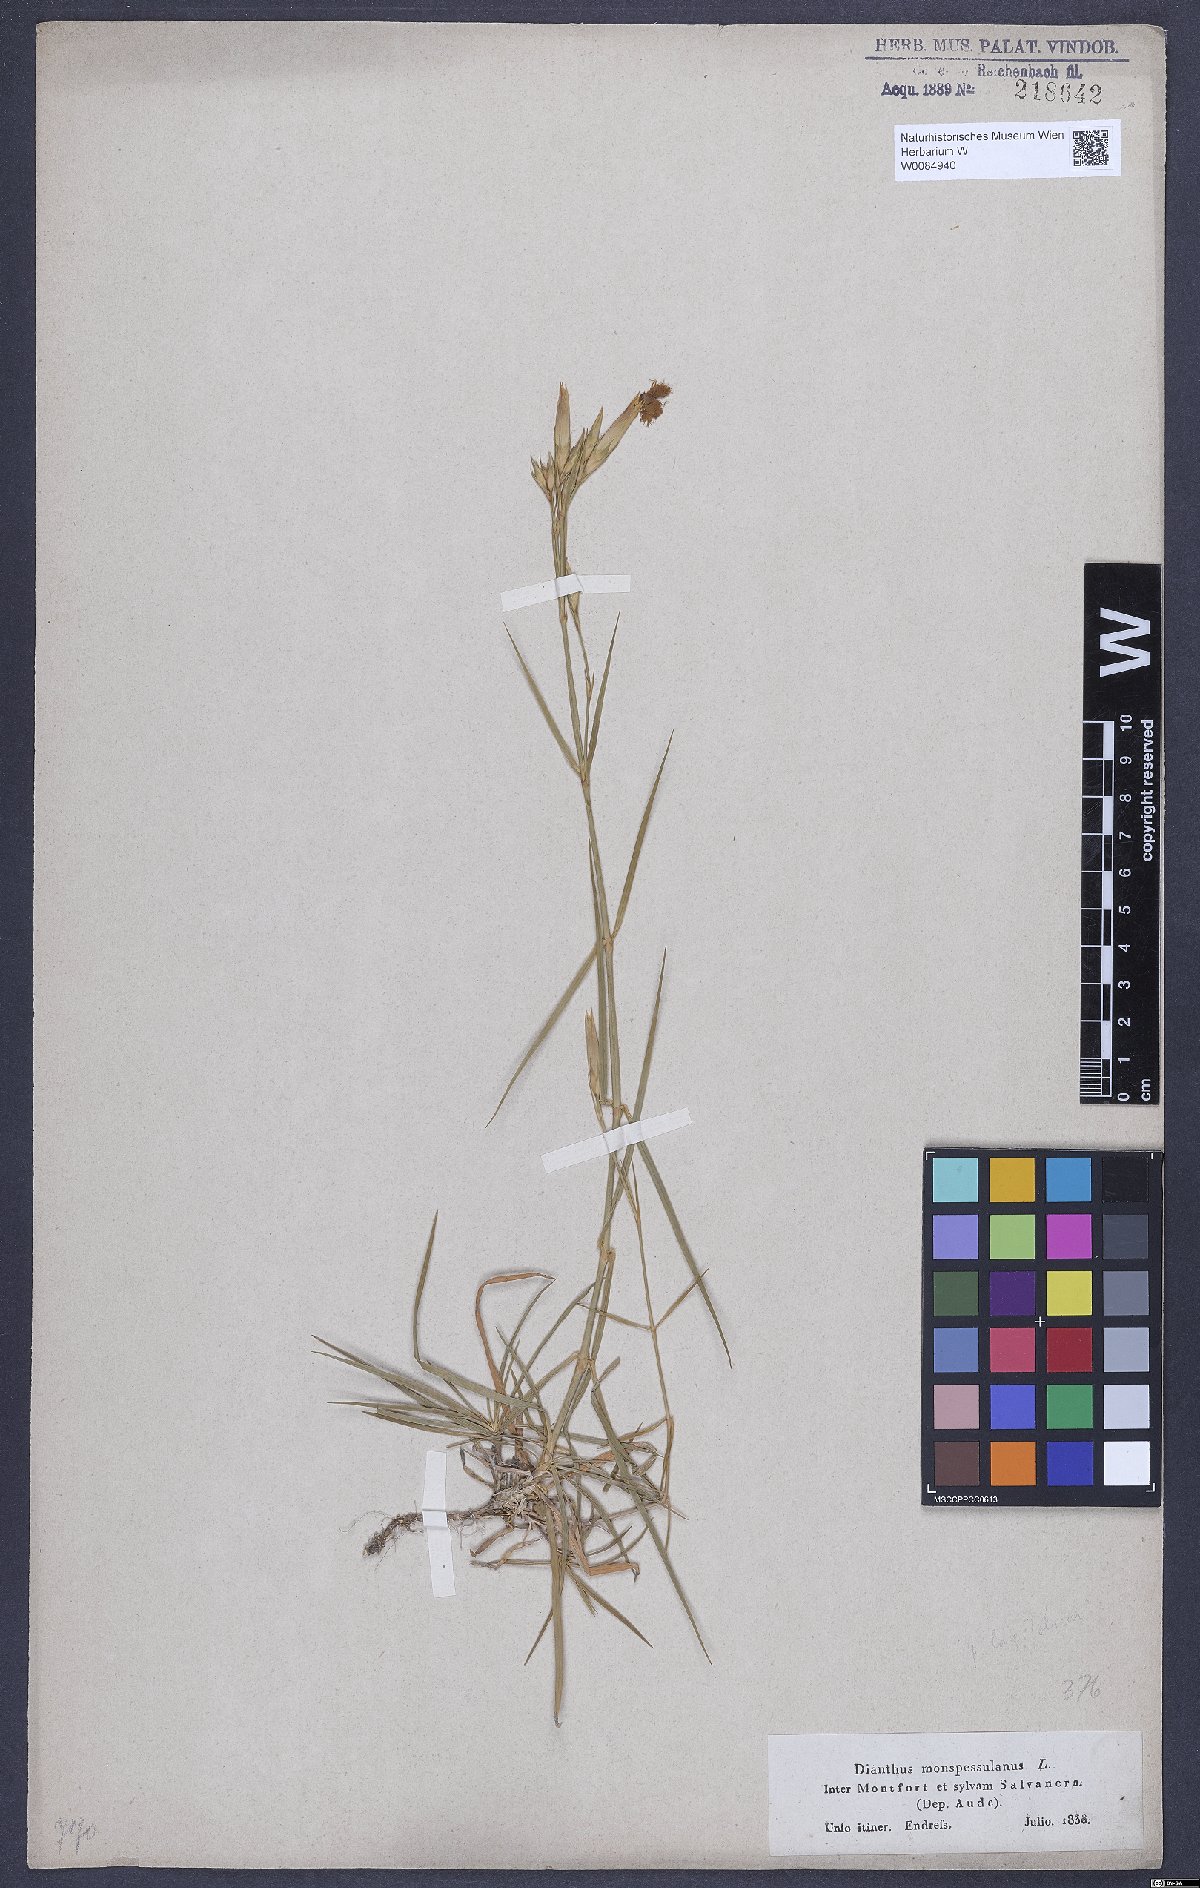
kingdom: Plantae
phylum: Tracheophyta
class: Magnoliopsida
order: Caryophyllales
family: Caryophyllaceae
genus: Dianthus
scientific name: Dianthus hyssopifolius
